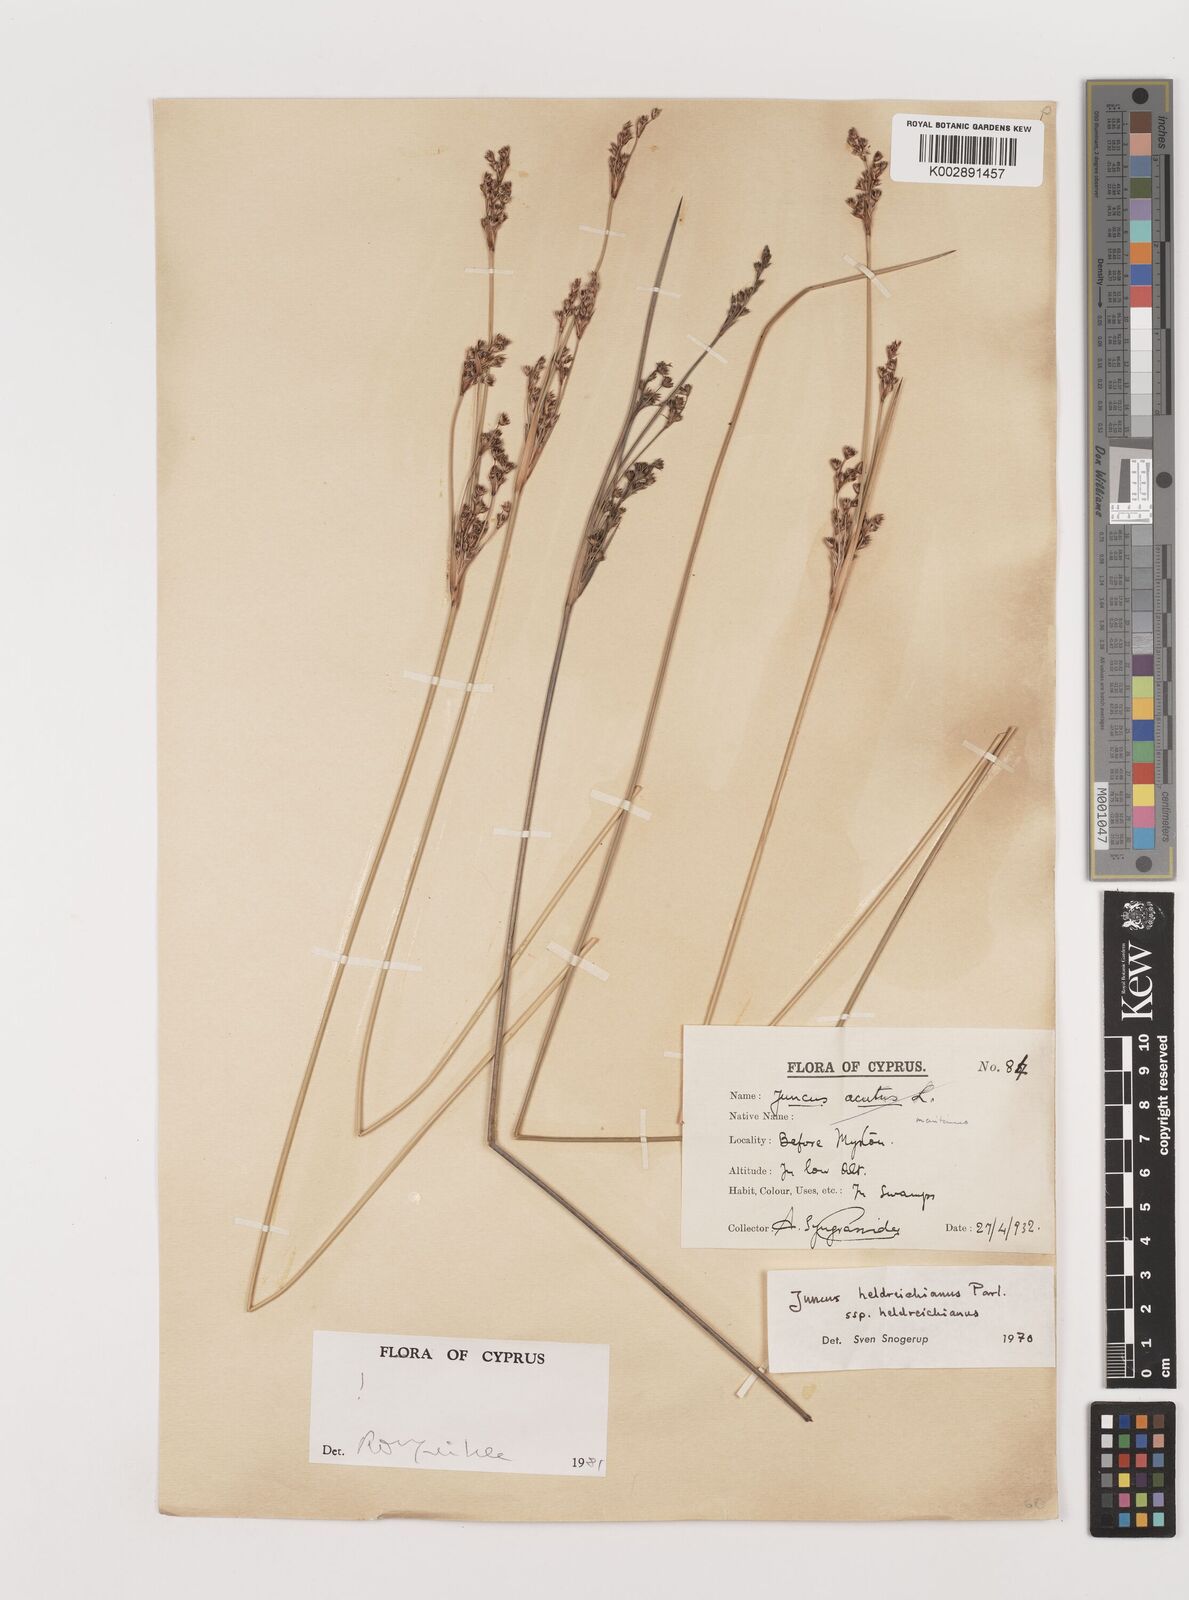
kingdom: Plantae
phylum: Tracheophyta
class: Liliopsida
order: Poales
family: Juncaceae
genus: Juncus
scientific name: Juncus heldreichianus
